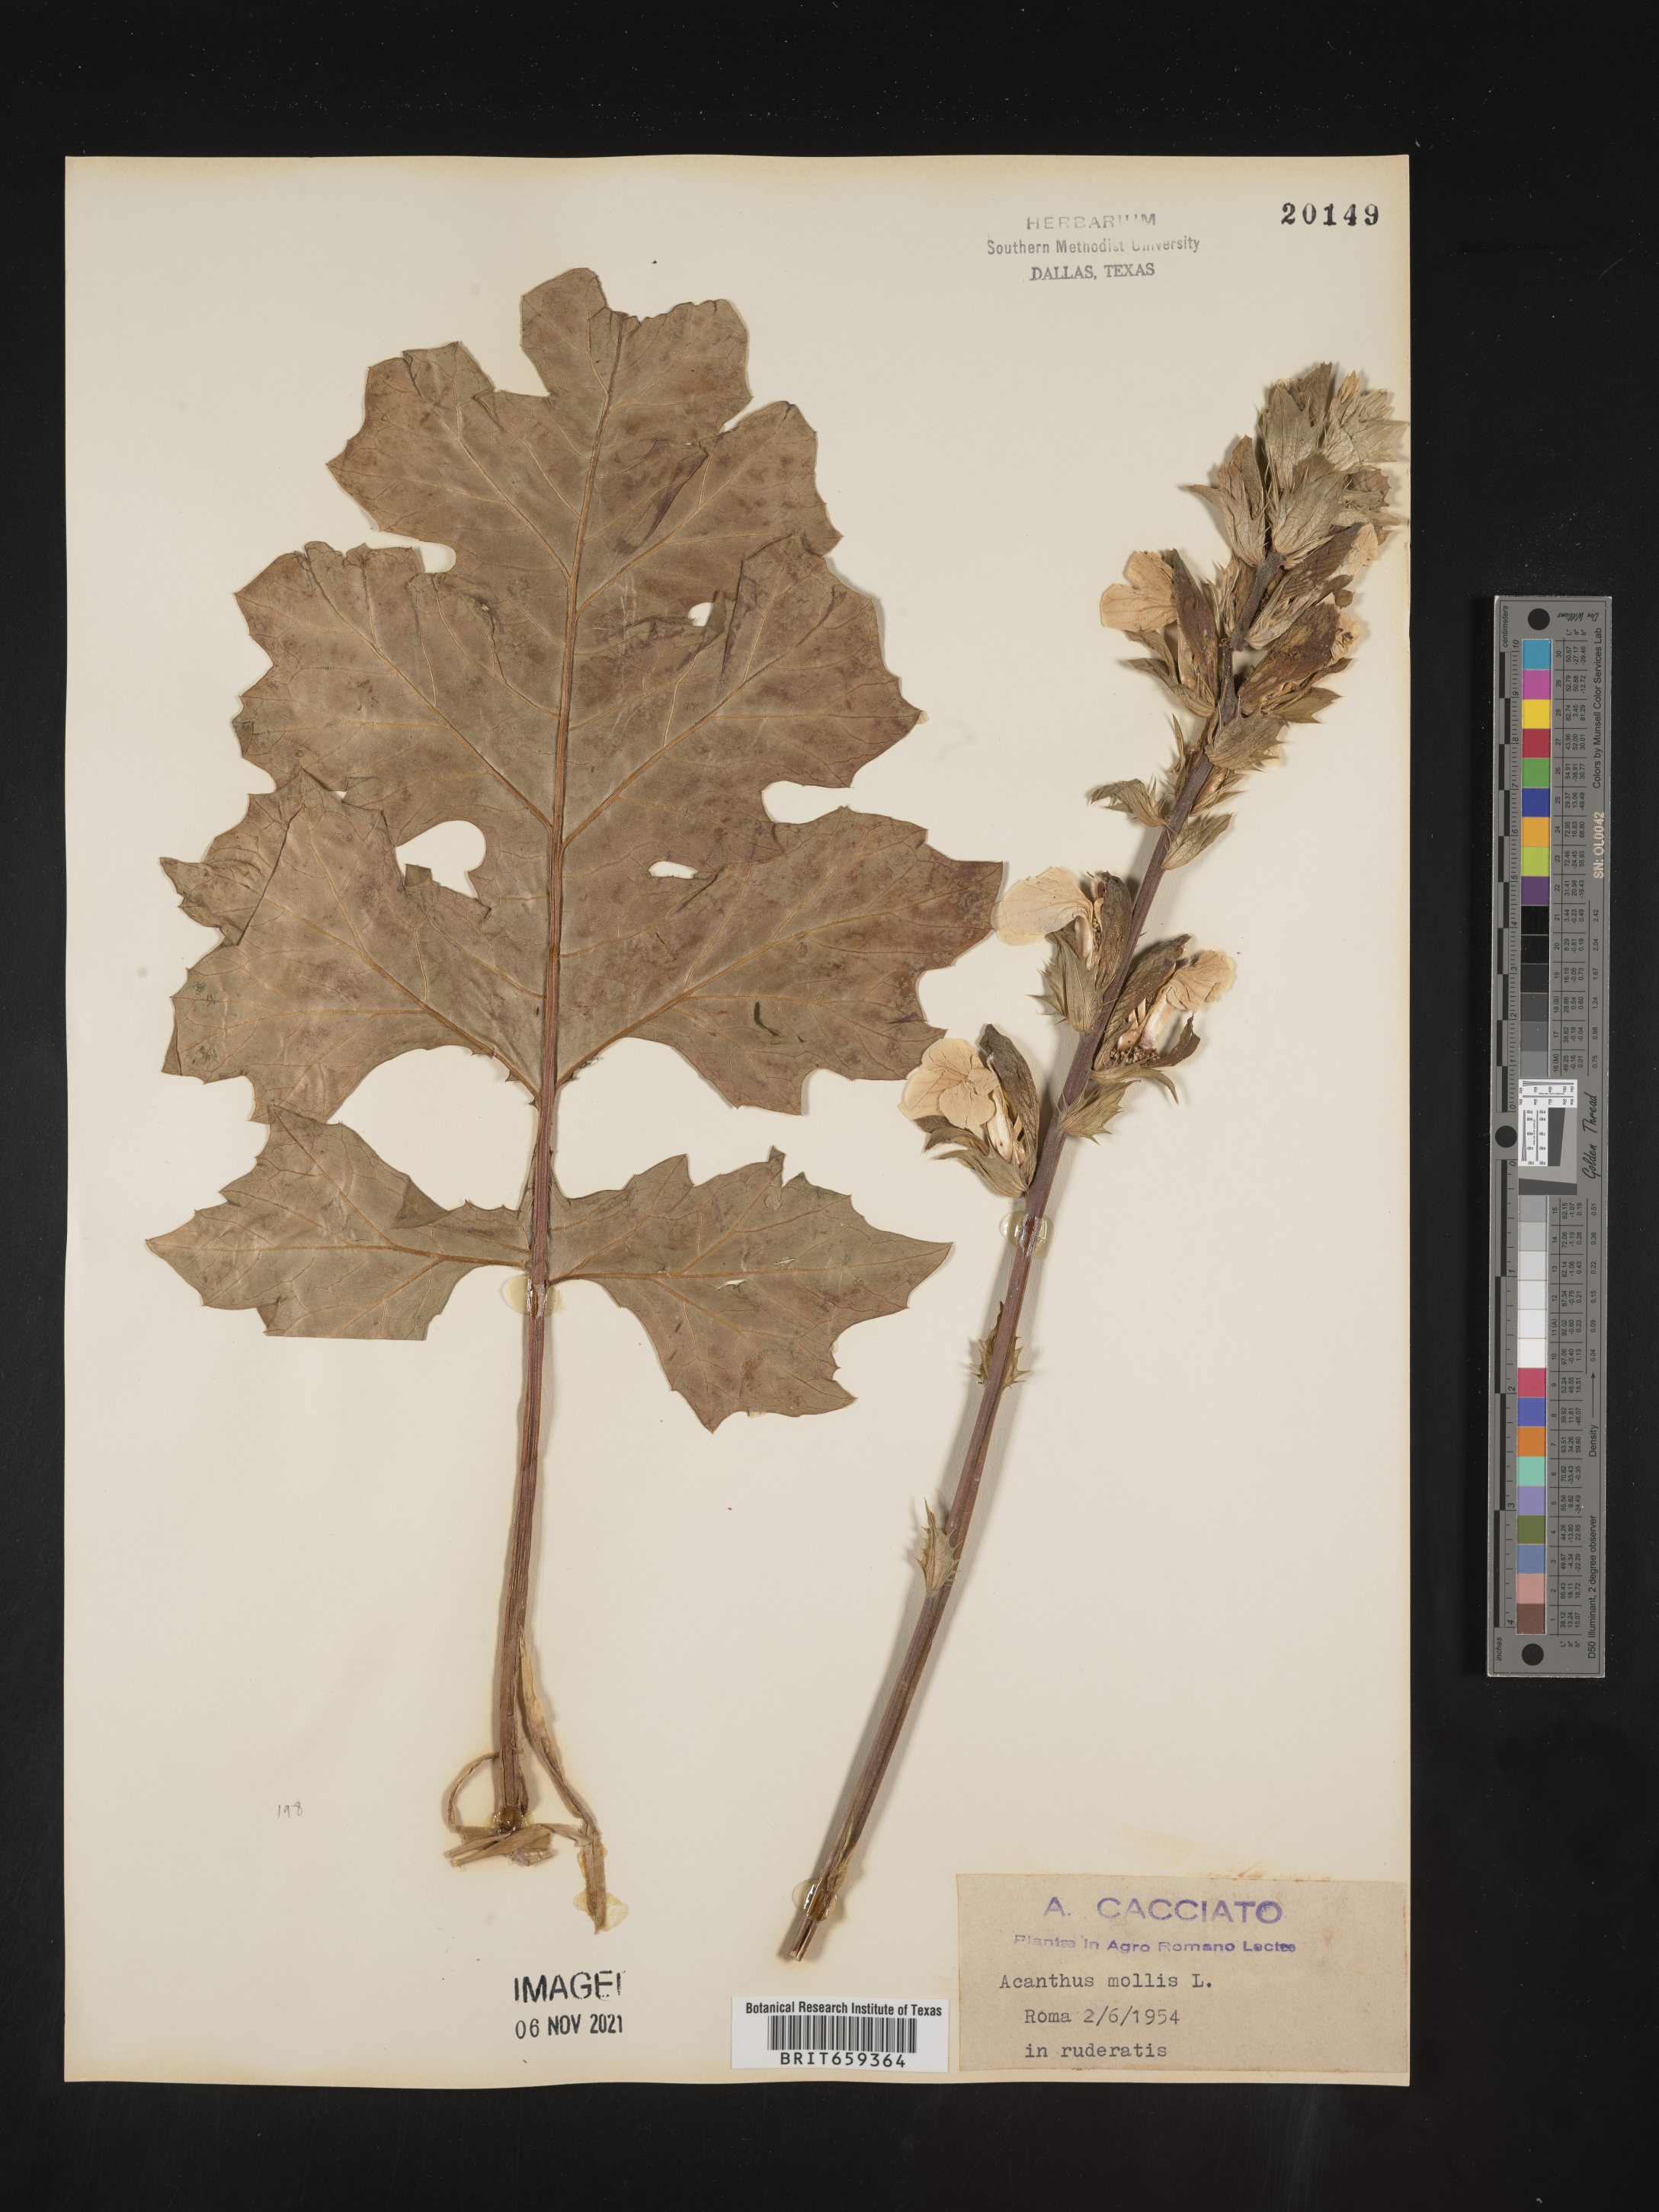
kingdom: Plantae
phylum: Tracheophyta
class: Magnoliopsida
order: Lamiales
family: Acanthaceae
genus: Acanthus
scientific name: Acanthus
